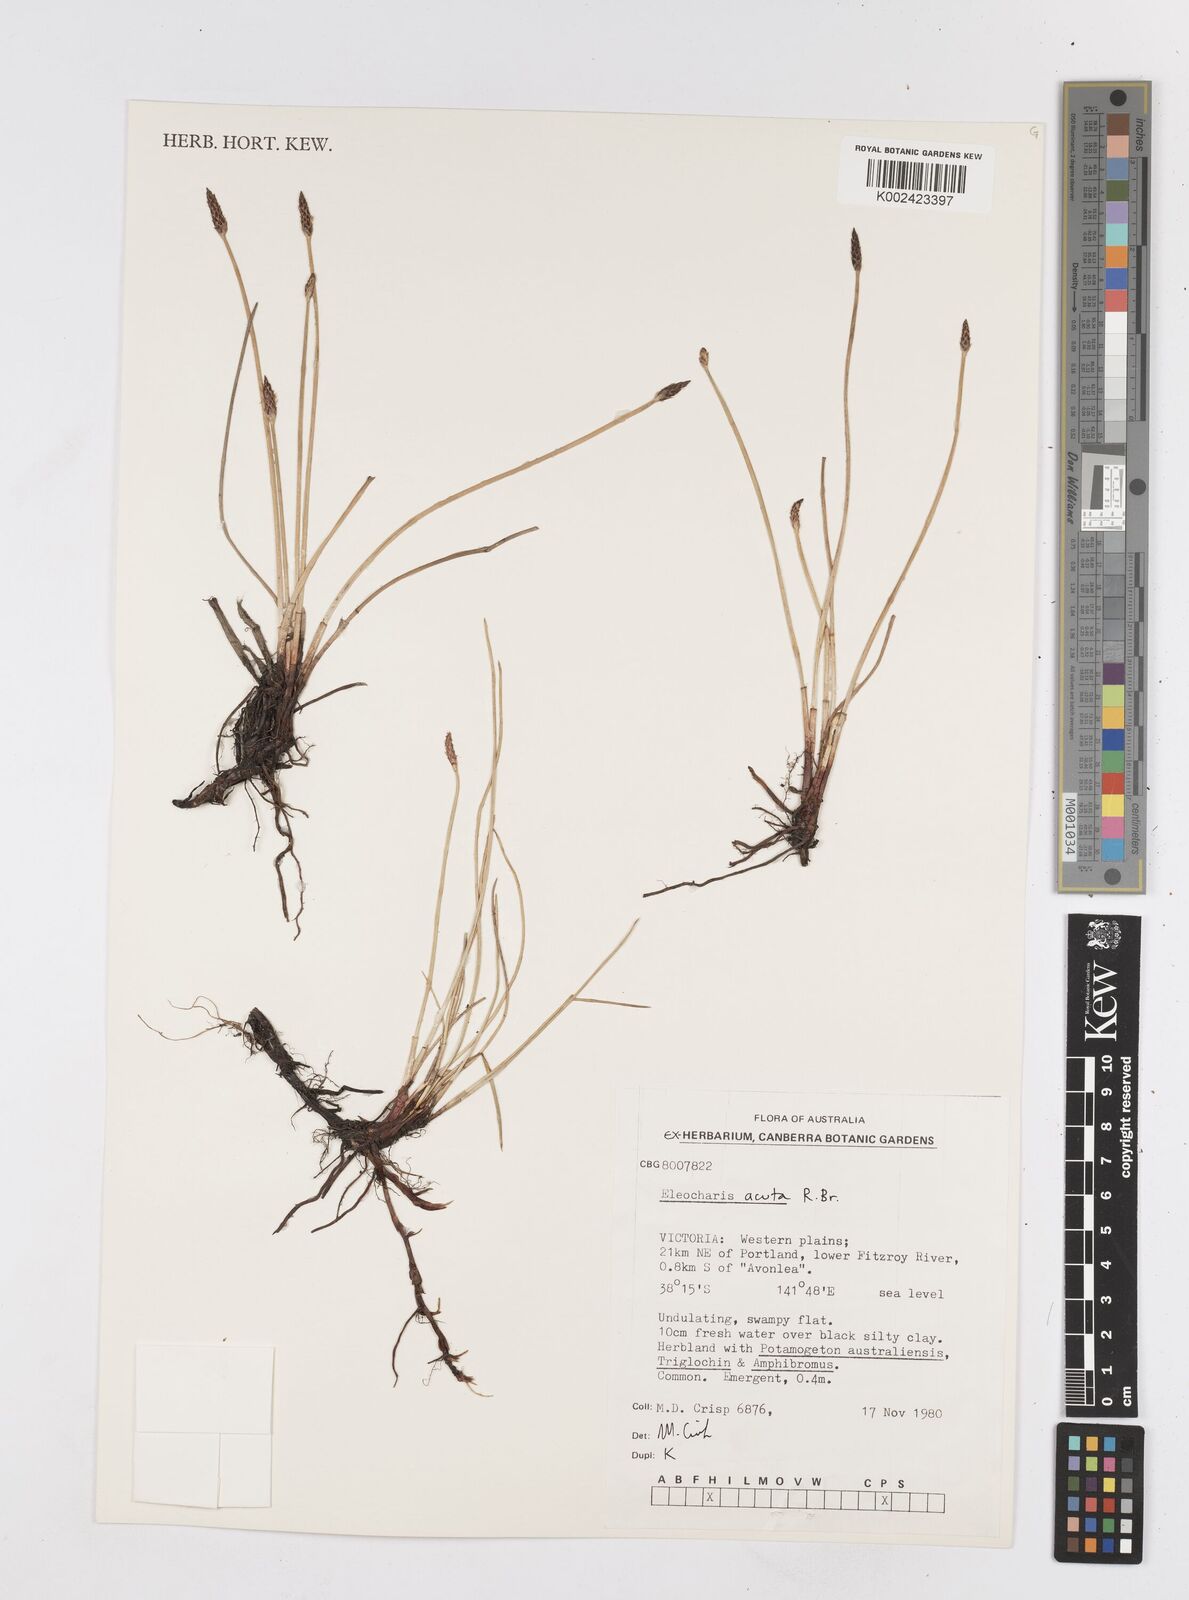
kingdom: Plantae
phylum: Tracheophyta
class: Liliopsida
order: Poales
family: Cyperaceae
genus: Eleocharis
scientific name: Eleocharis acuta
